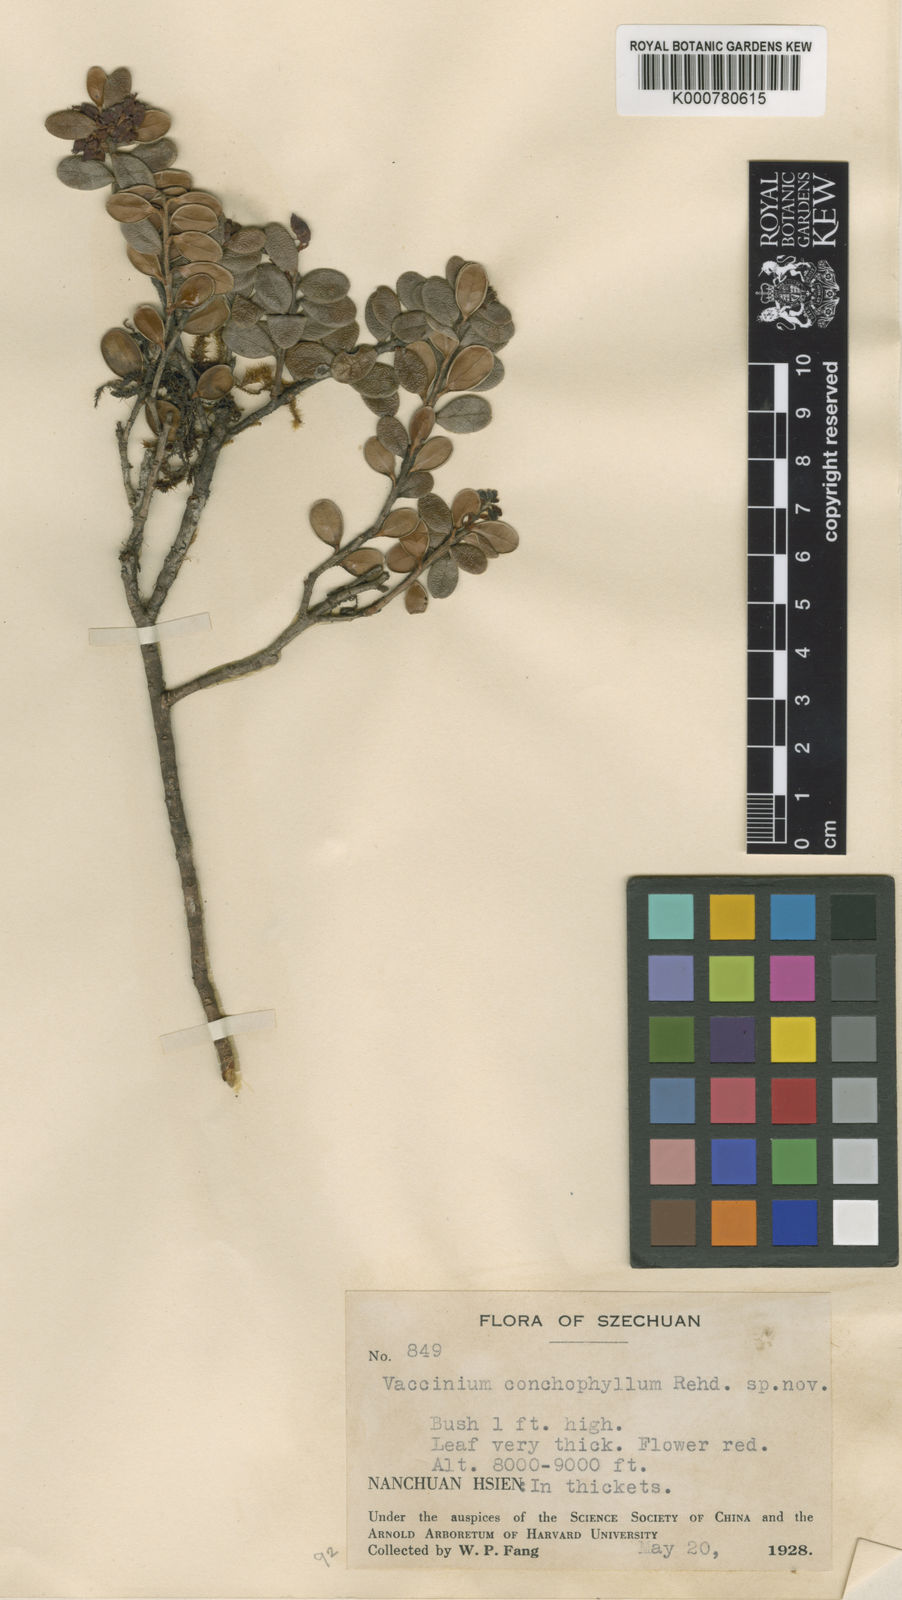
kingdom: Plantae
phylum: Tracheophyta
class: Magnoliopsida
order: Ericales
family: Ericaceae
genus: Vaccinium
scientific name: Vaccinium conchophyllum
